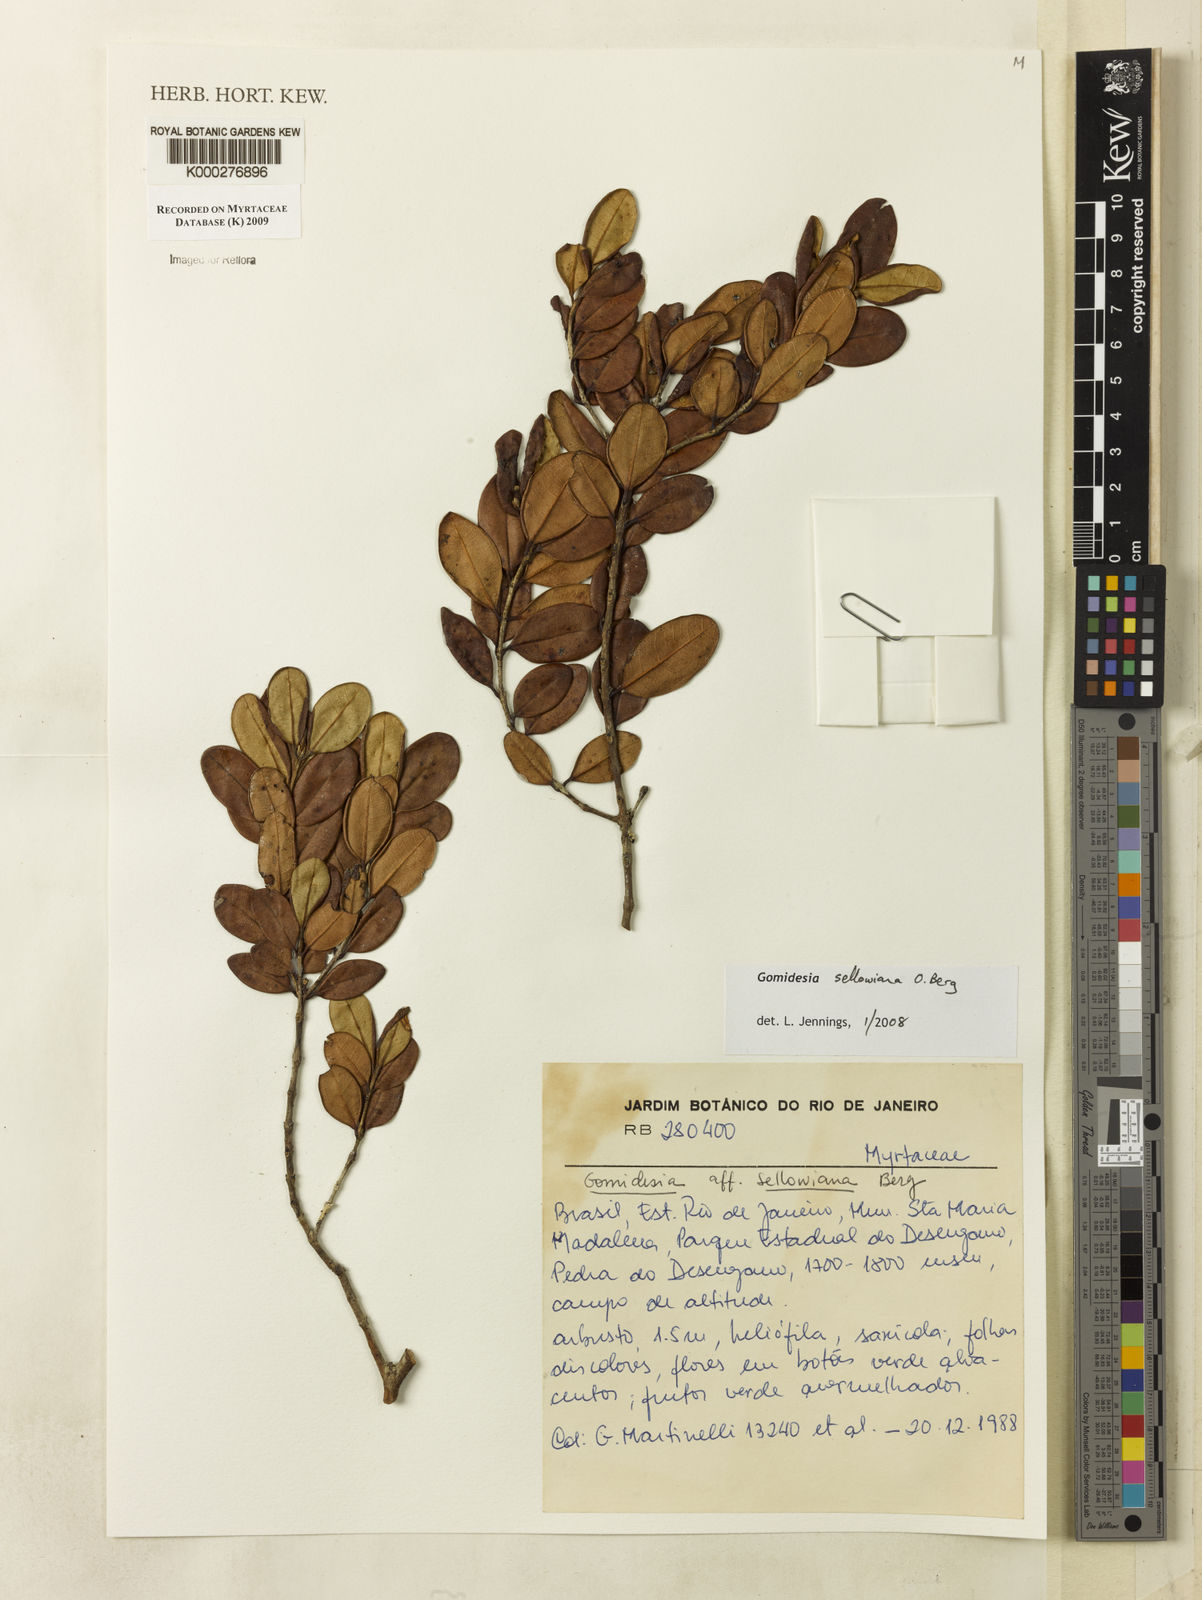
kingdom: Plantae
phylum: Tracheophyta
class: Magnoliopsida
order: Myrtales
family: Myrtaceae
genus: Myrcia
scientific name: Myrcia hartwegiana
